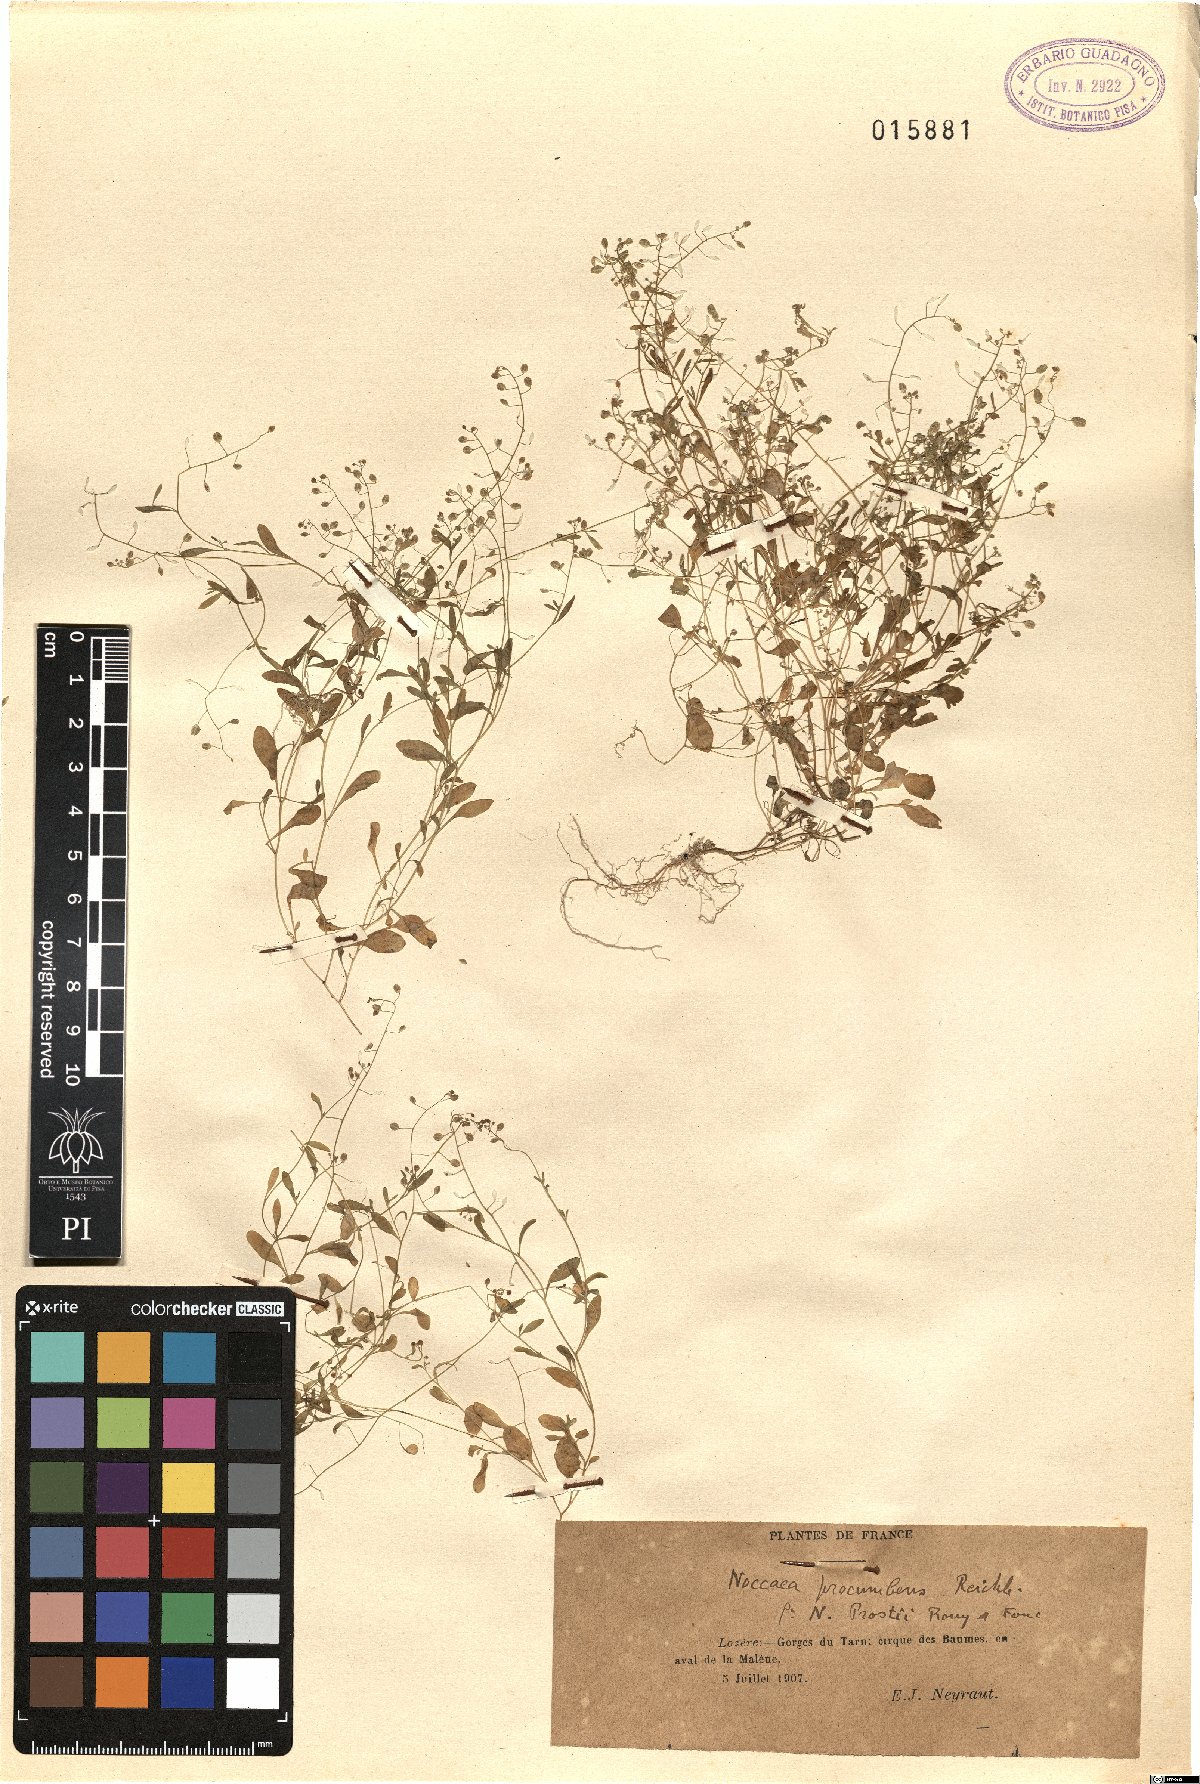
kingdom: Plantae
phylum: Tracheophyta
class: Magnoliopsida
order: Brassicales
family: Brassicaceae
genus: Hornungia
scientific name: Hornungia procumbens
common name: Oval purse
